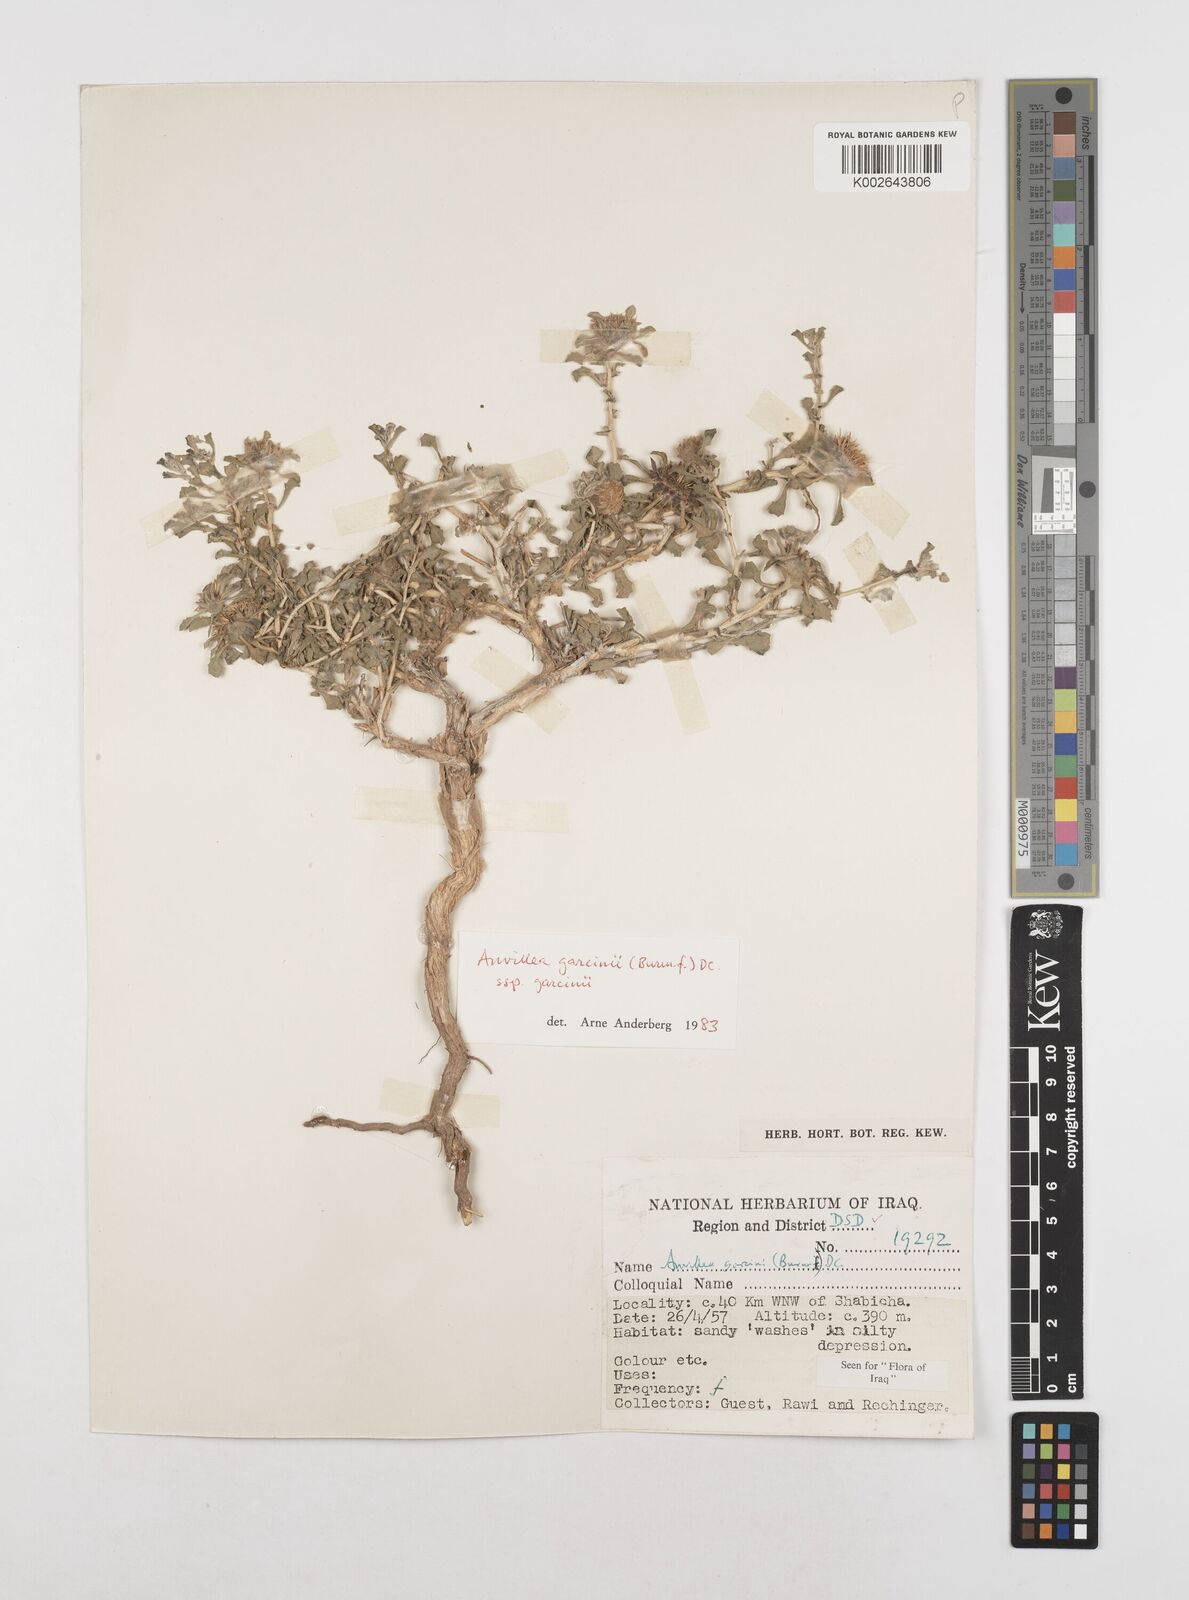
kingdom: Plantae
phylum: Tracheophyta
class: Magnoliopsida
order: Asterales
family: Asteraceae
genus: Anvillea
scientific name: Anvillea garcinii
